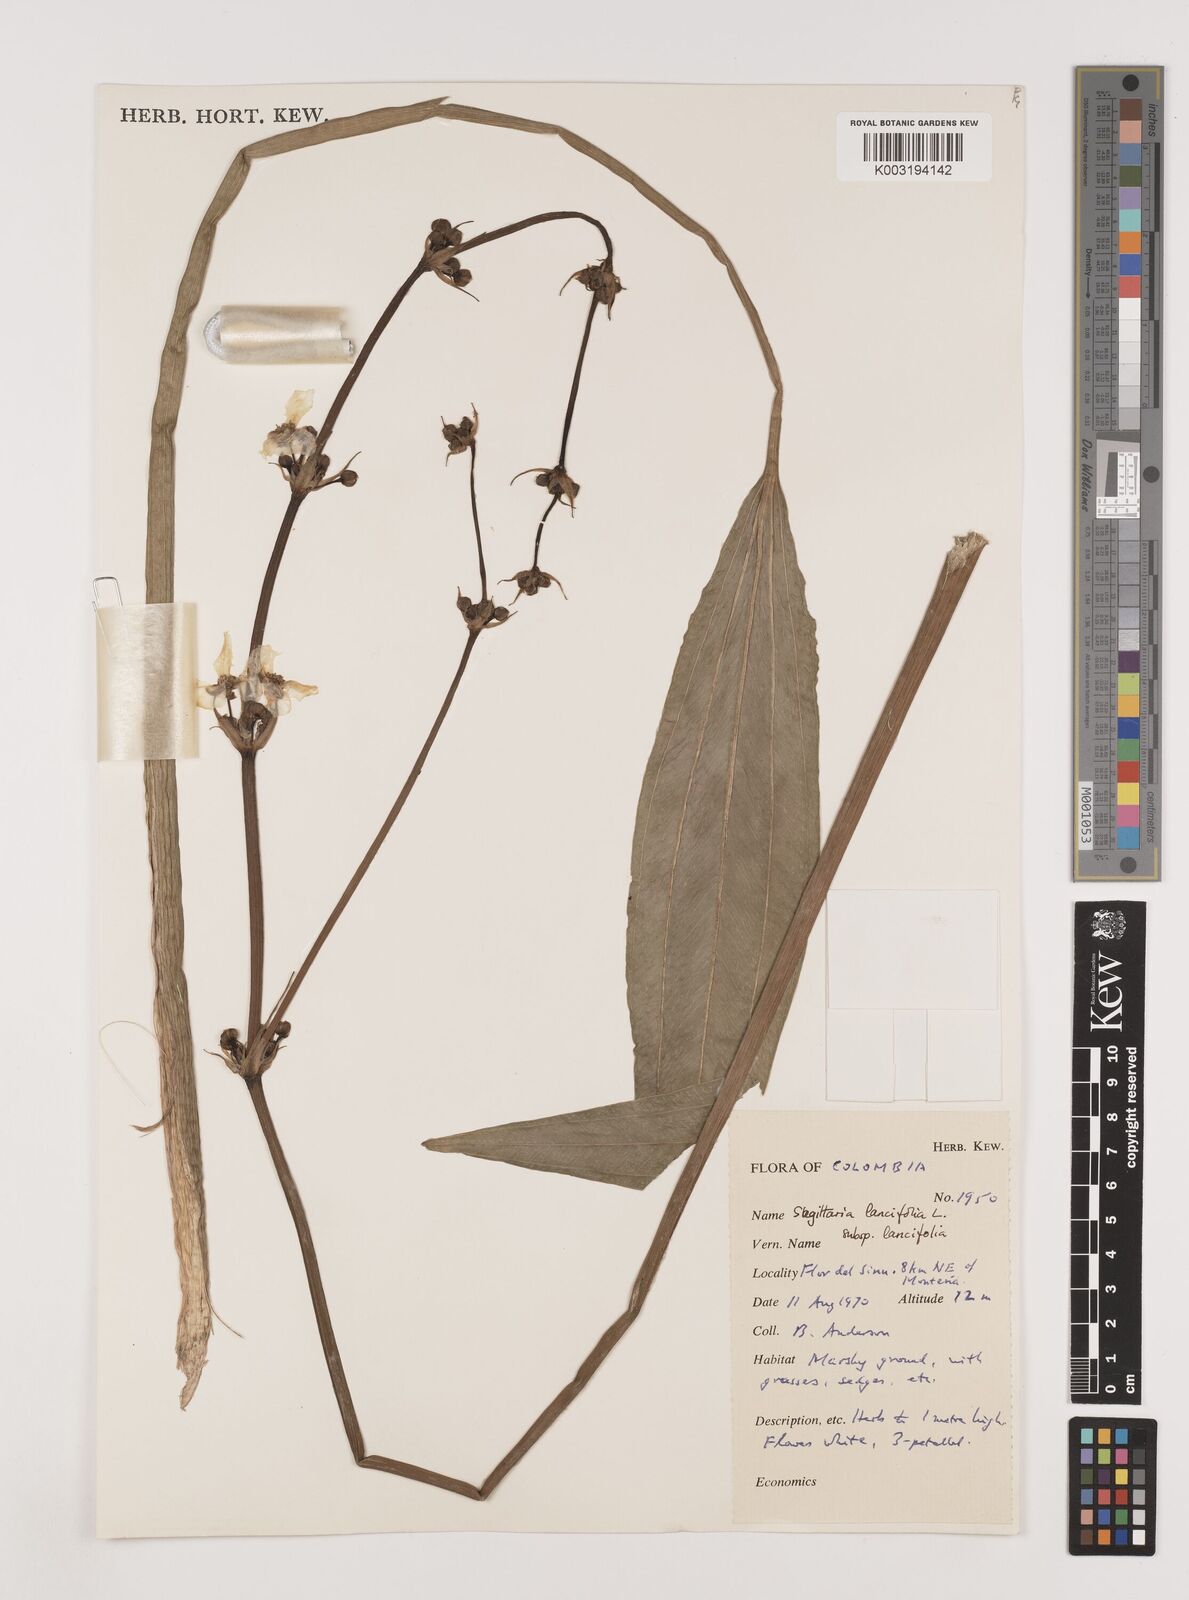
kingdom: Plantae
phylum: Tracheophyta
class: Liliopsida
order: Alismatales
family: Alismataceae
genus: Sagittaria
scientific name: Sagittaria lancifolia
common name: Lance-leaf arrowhead
